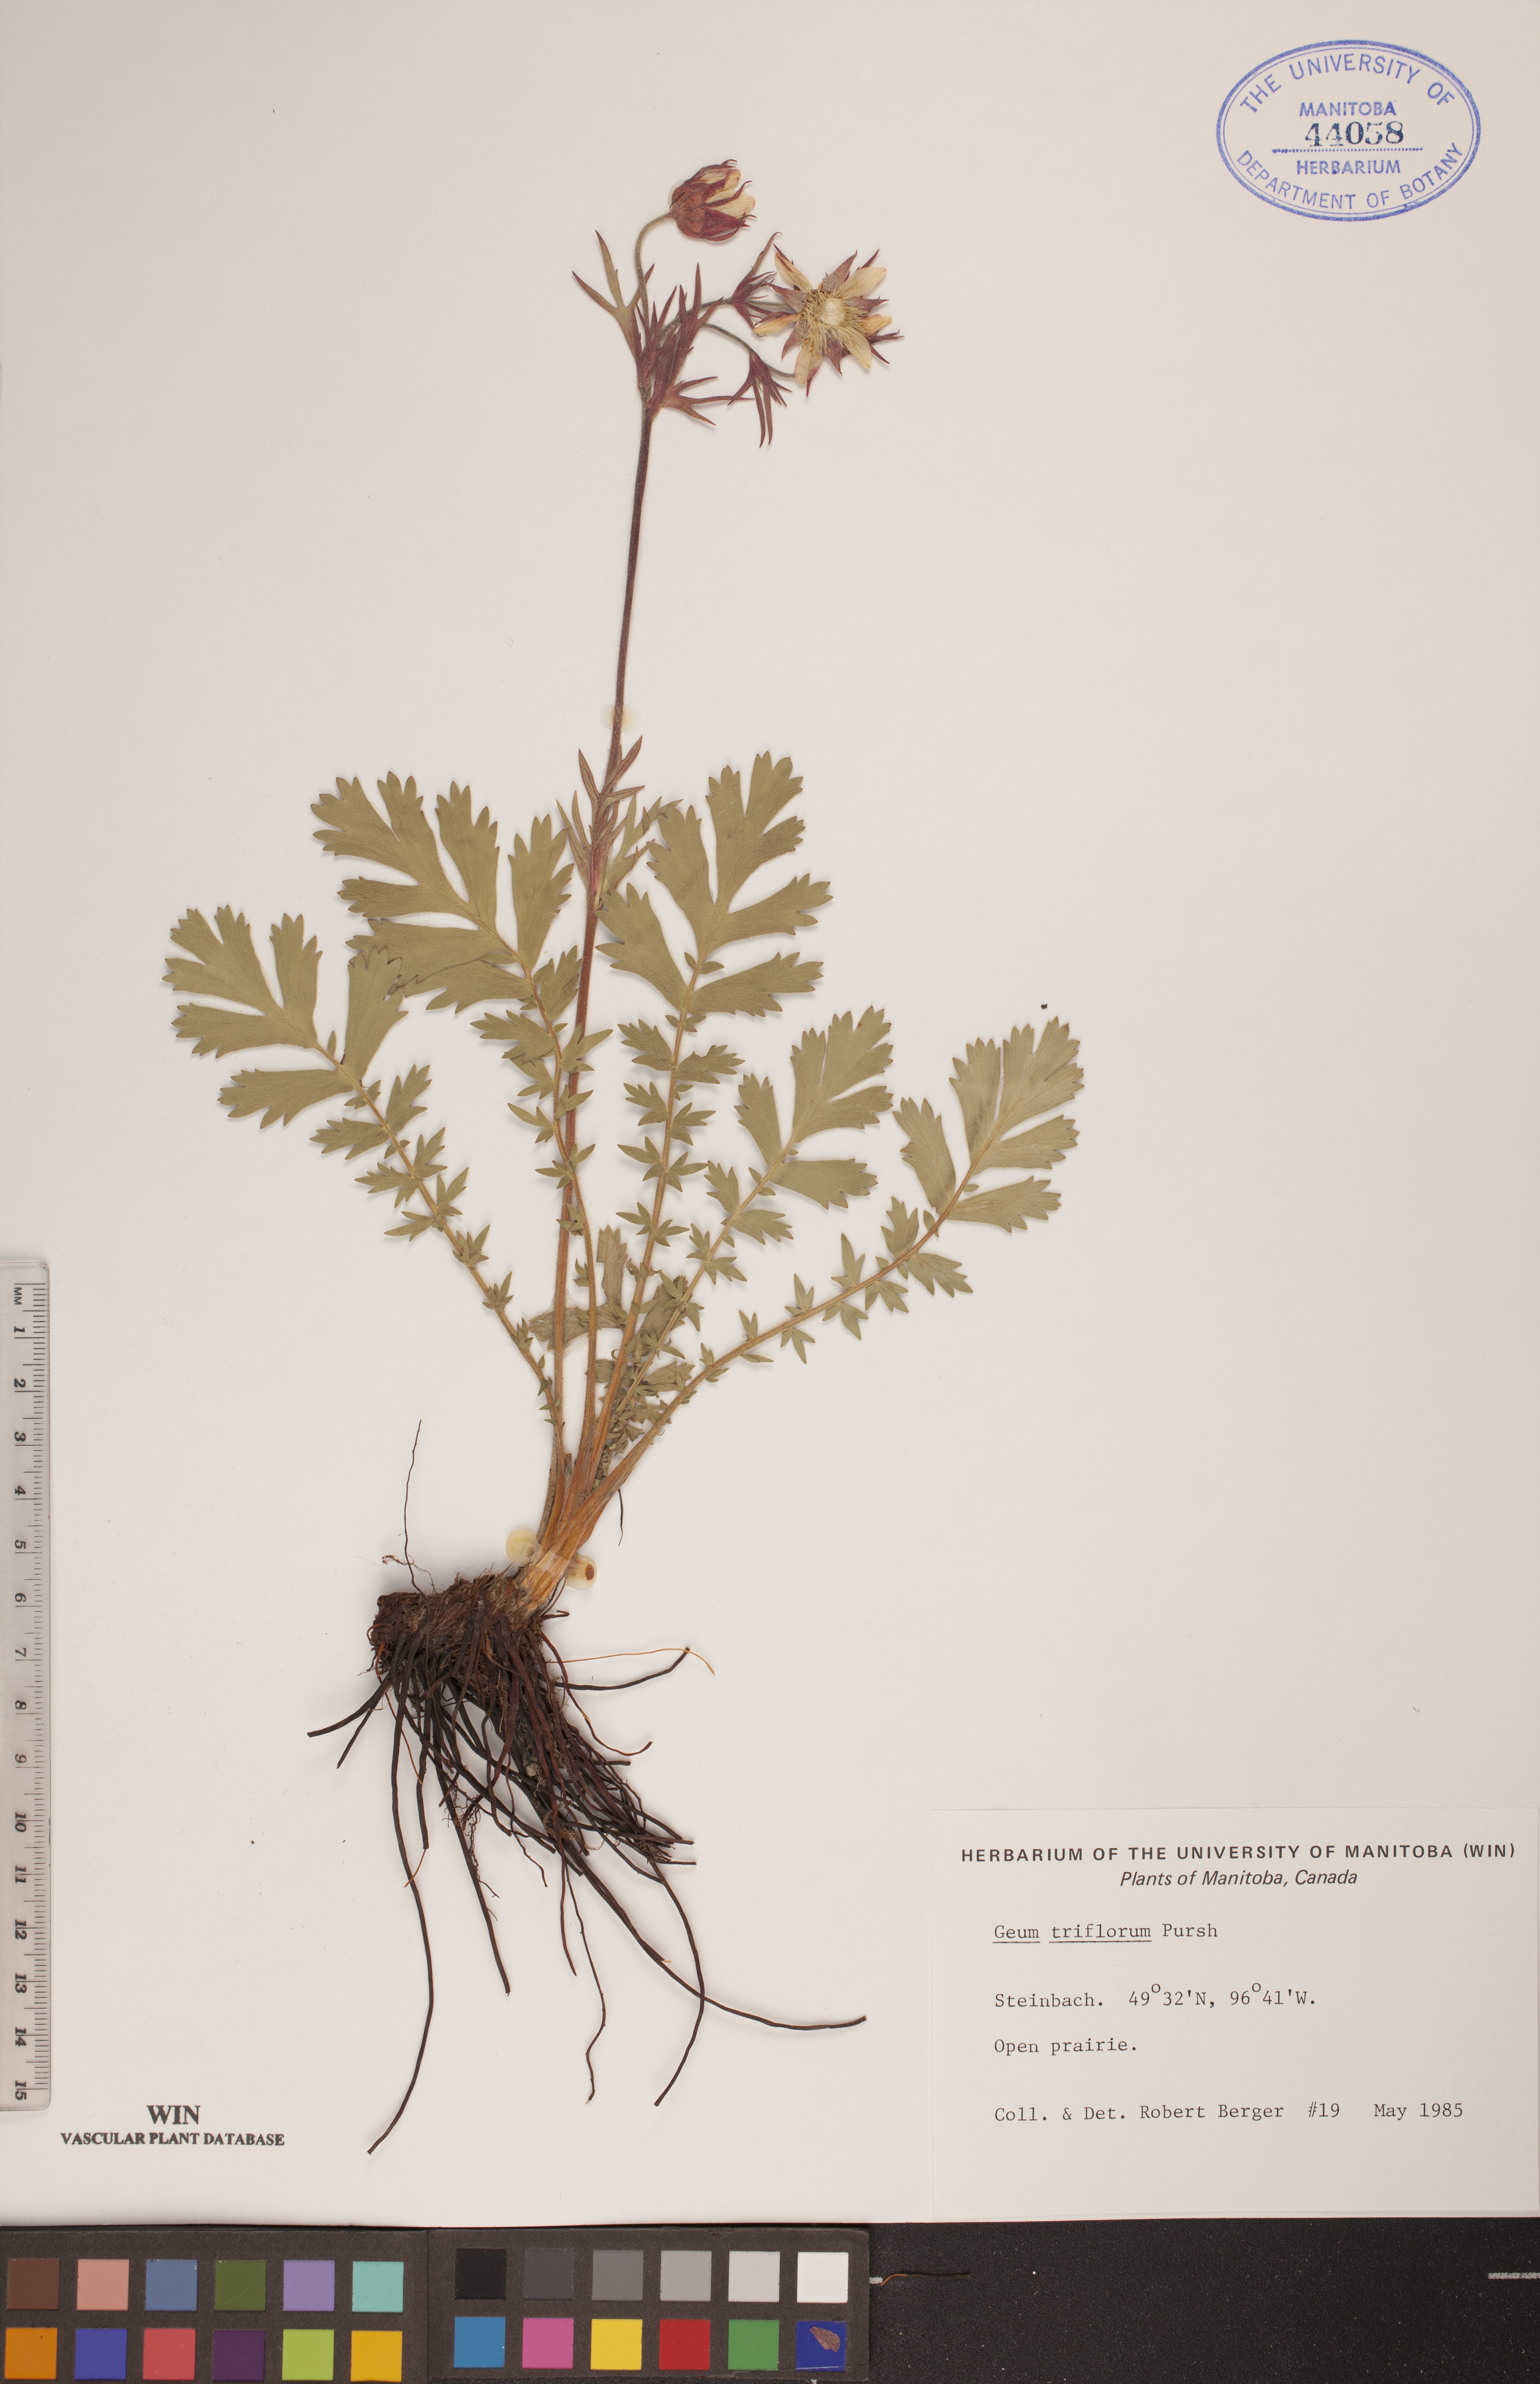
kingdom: Plantae
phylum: Tracheophyta
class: Magnoliopsida
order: Rosales
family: Rosaceae
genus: Geum
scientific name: Geum triflorum
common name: Old man's whiskers
